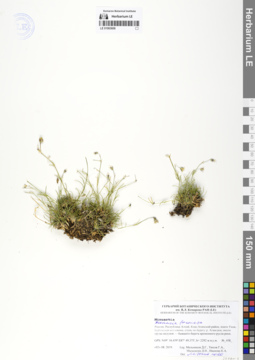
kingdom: Plantae
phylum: Tracheophyta
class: Magnoliopsida
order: Caryophyllales
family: Caryophyllaceae
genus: Eremogone
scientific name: Eremogone formosa
